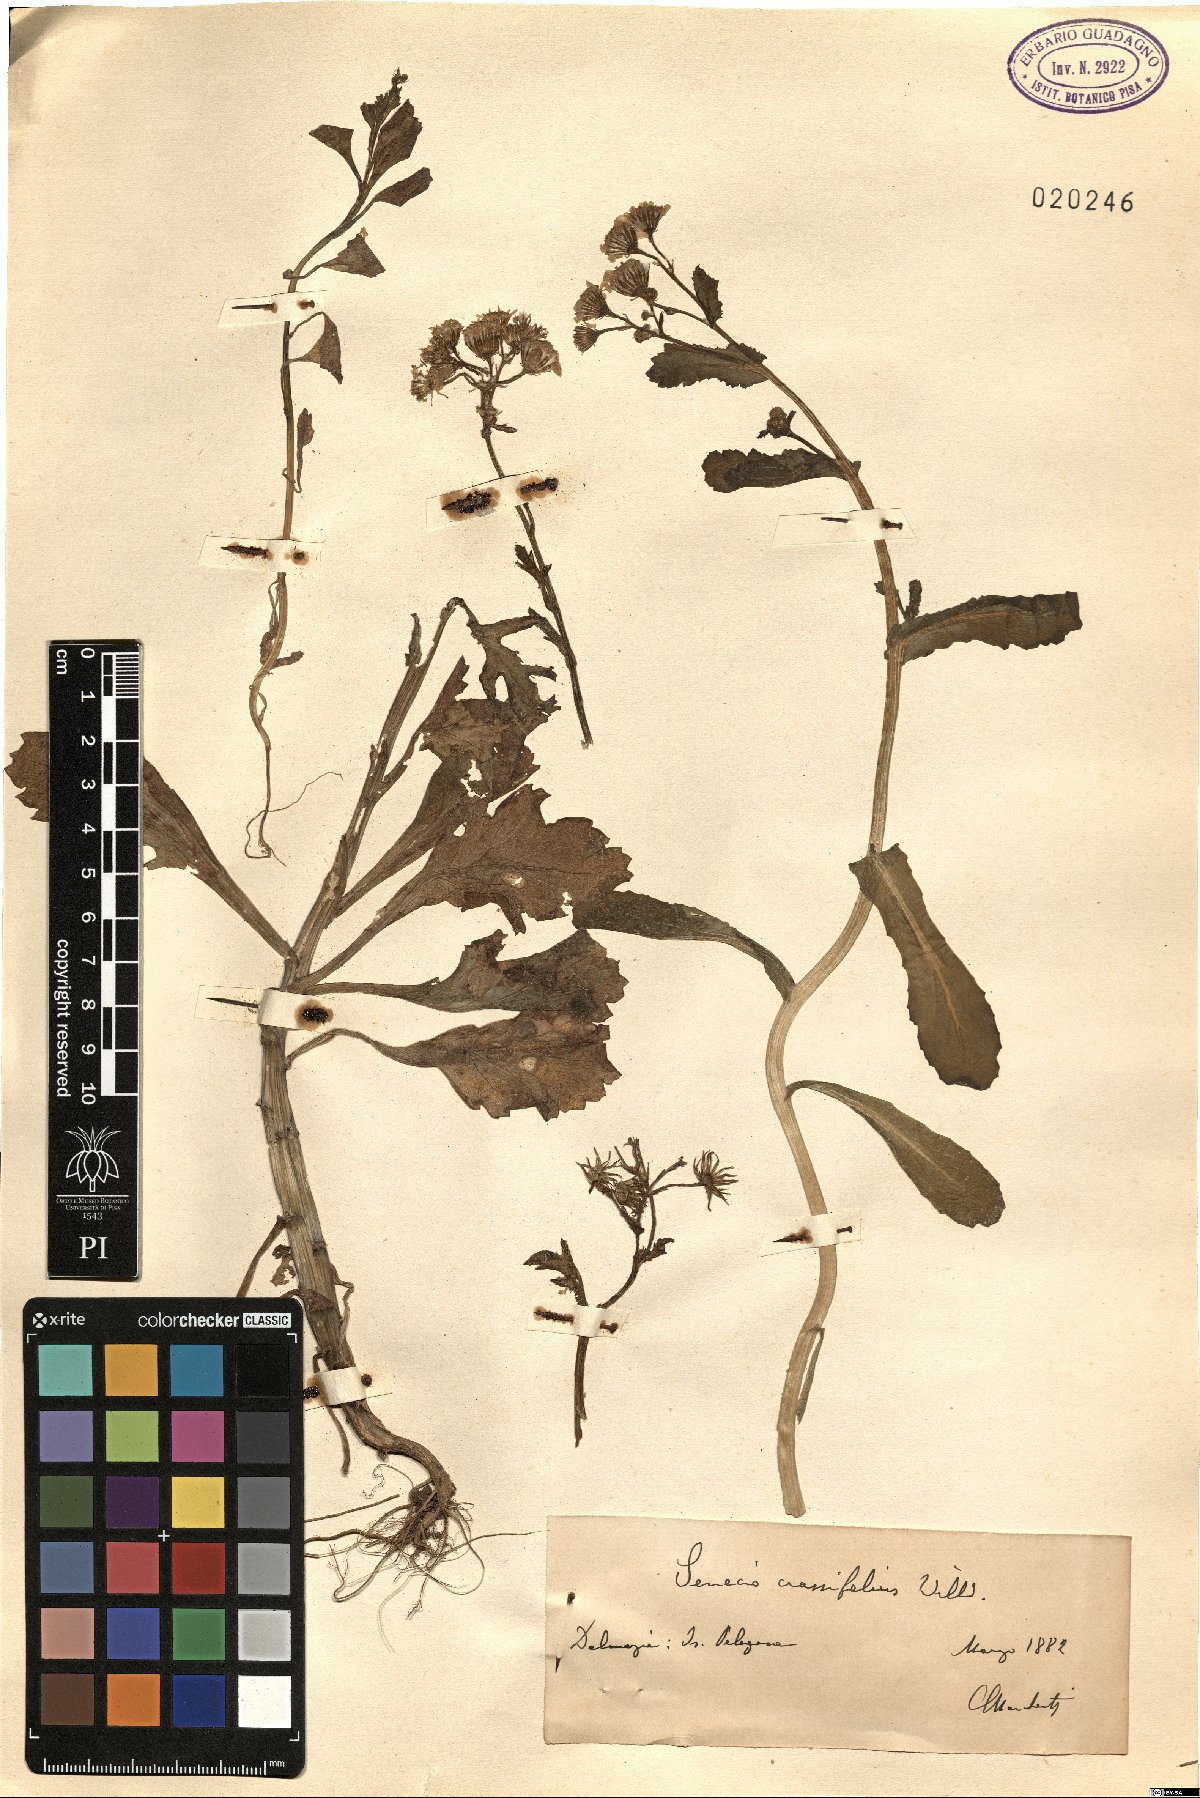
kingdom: Plantae
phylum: Tracheophyta
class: Magnoliopsida
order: Asterales
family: Asteraceae
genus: Senecio
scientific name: Senecio leucanthemifolius
